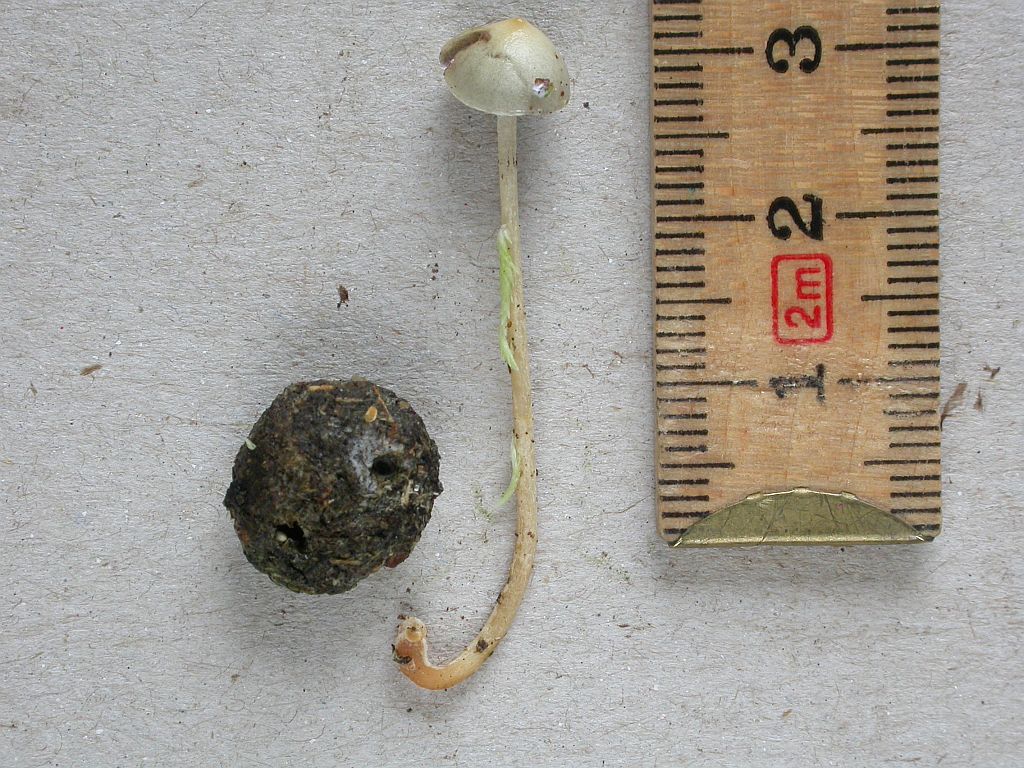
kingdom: Fungi
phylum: Basidiomycota
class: Agaricomycetes
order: Agaricales
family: Strophariaceae
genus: Protostropharia
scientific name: Protostropharia semiglobata
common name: halvkugleformet bredblad
